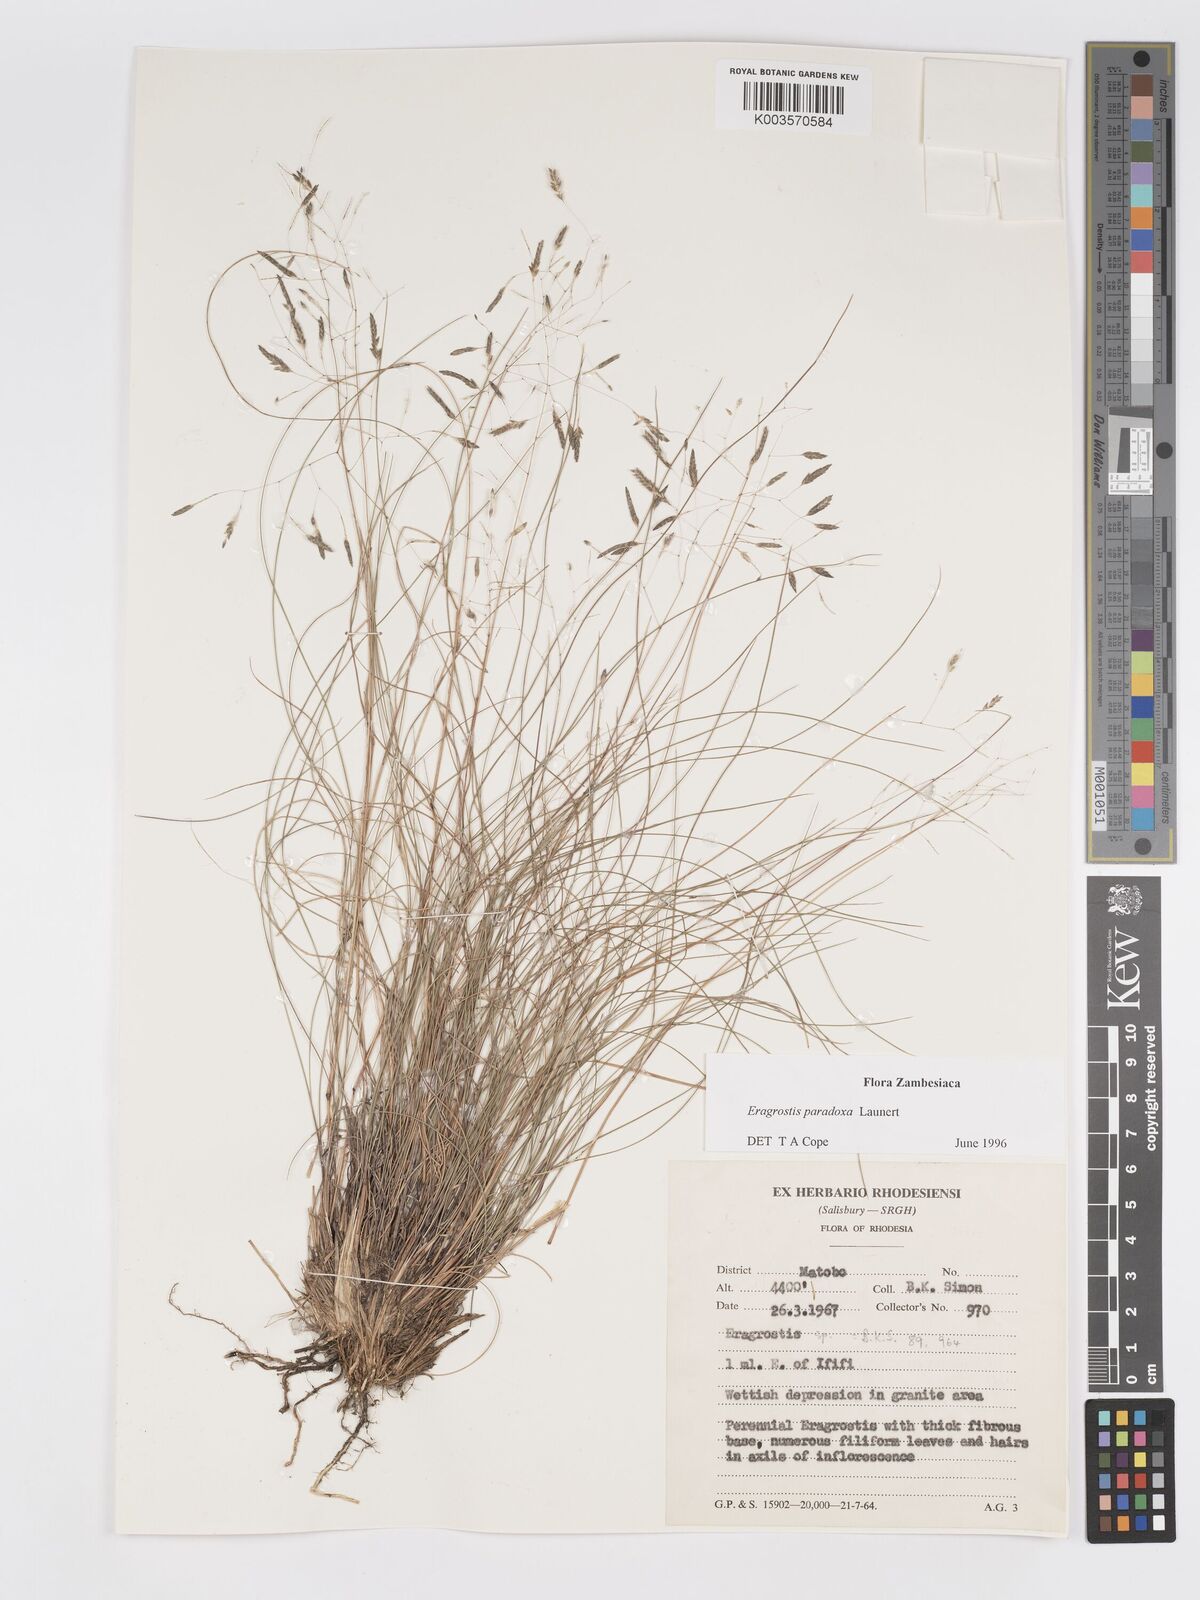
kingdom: Plantae
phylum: Tracheophyta
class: Liliopsida
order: Poales
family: Poaceae
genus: Eragrostis
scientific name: Eragrostis paradoxa
